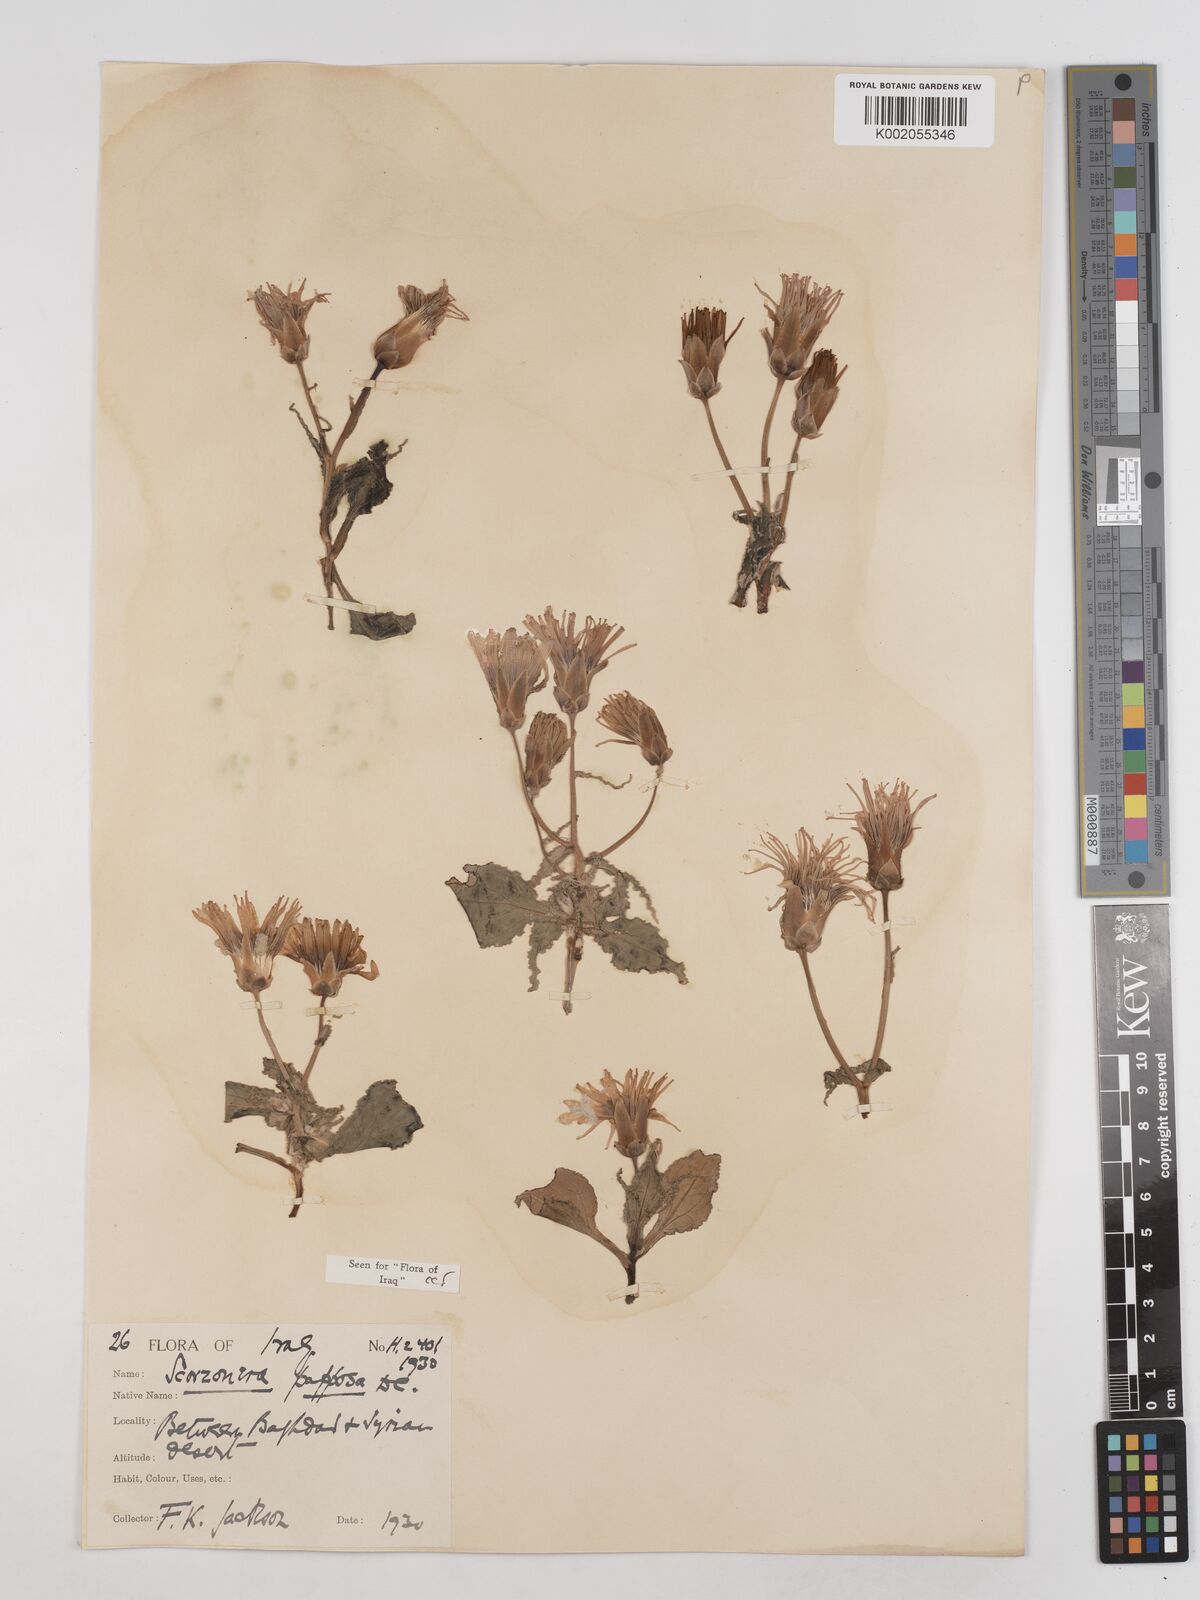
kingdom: Plantae
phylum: Tracheophyta
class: Magnoliopsida
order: Asterales
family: Asteraceae
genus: Pseudopodospermum
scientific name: Pseudopodospermum papposum
